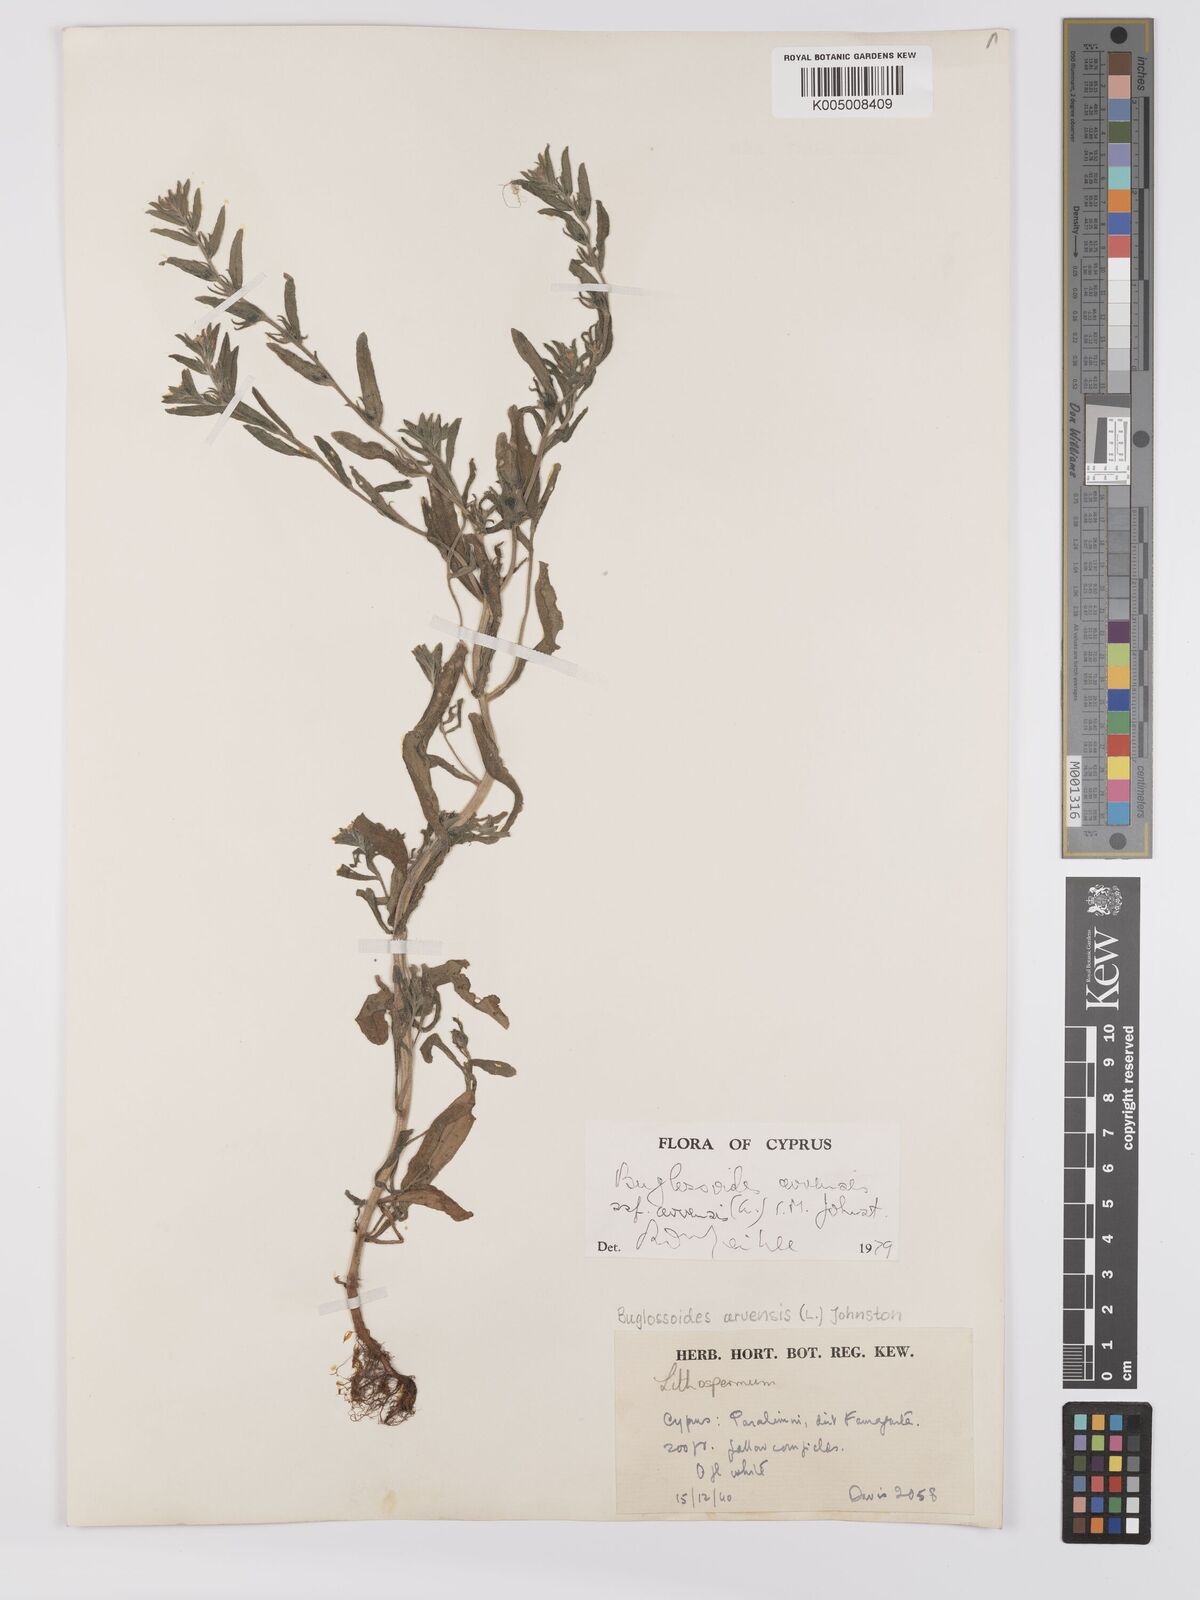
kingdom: Plantae
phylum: Tracheophyta
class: Magnoliopsida
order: Boraginales
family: Boraginaceae
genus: Buglossoides
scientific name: Buglossoides arvensis
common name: Corn gromwell
